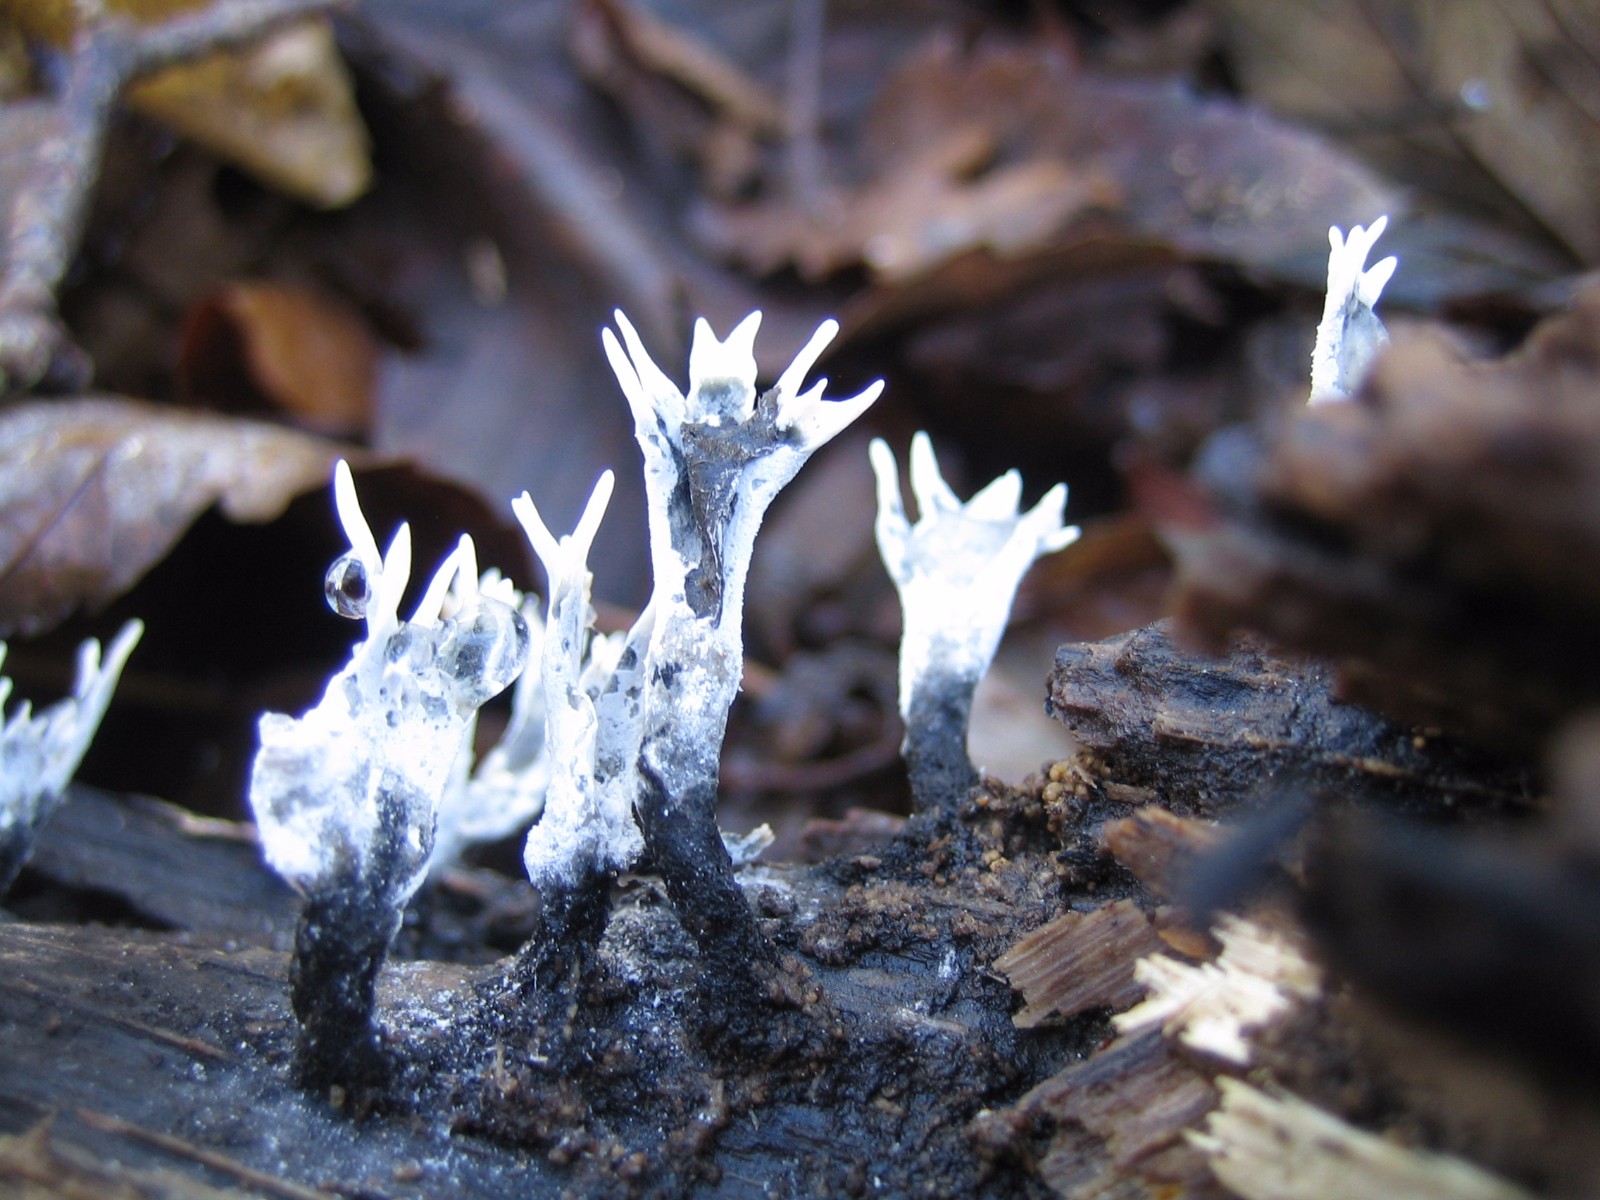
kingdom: Fungi
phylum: Ascomycota
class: Sordariomycetes
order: Xylariales
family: Xylariaceae
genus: Xylaria
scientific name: Xylaria hypoxylon
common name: grenet stødsvamp
